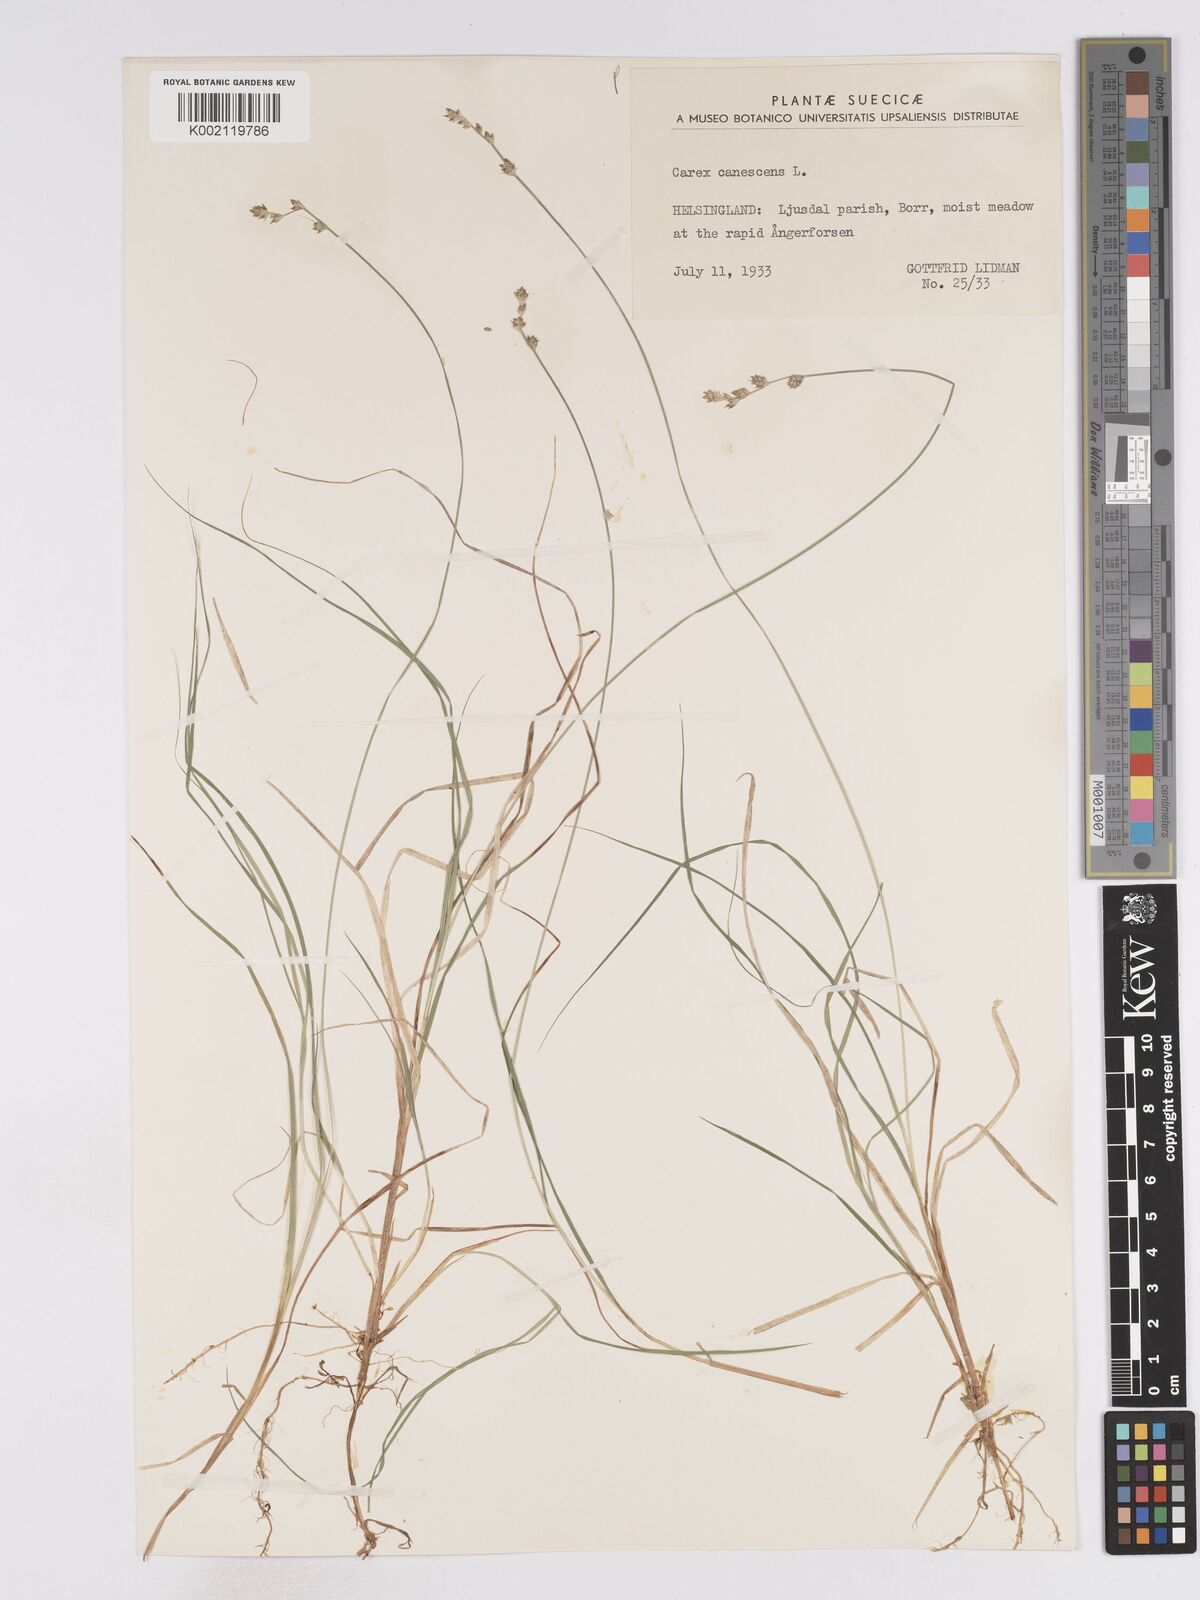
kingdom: Plantae
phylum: Tracheophyta
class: Liliopsida
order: Poales
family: Cyperaceae
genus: Carex
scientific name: Carex curta
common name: White sedge
